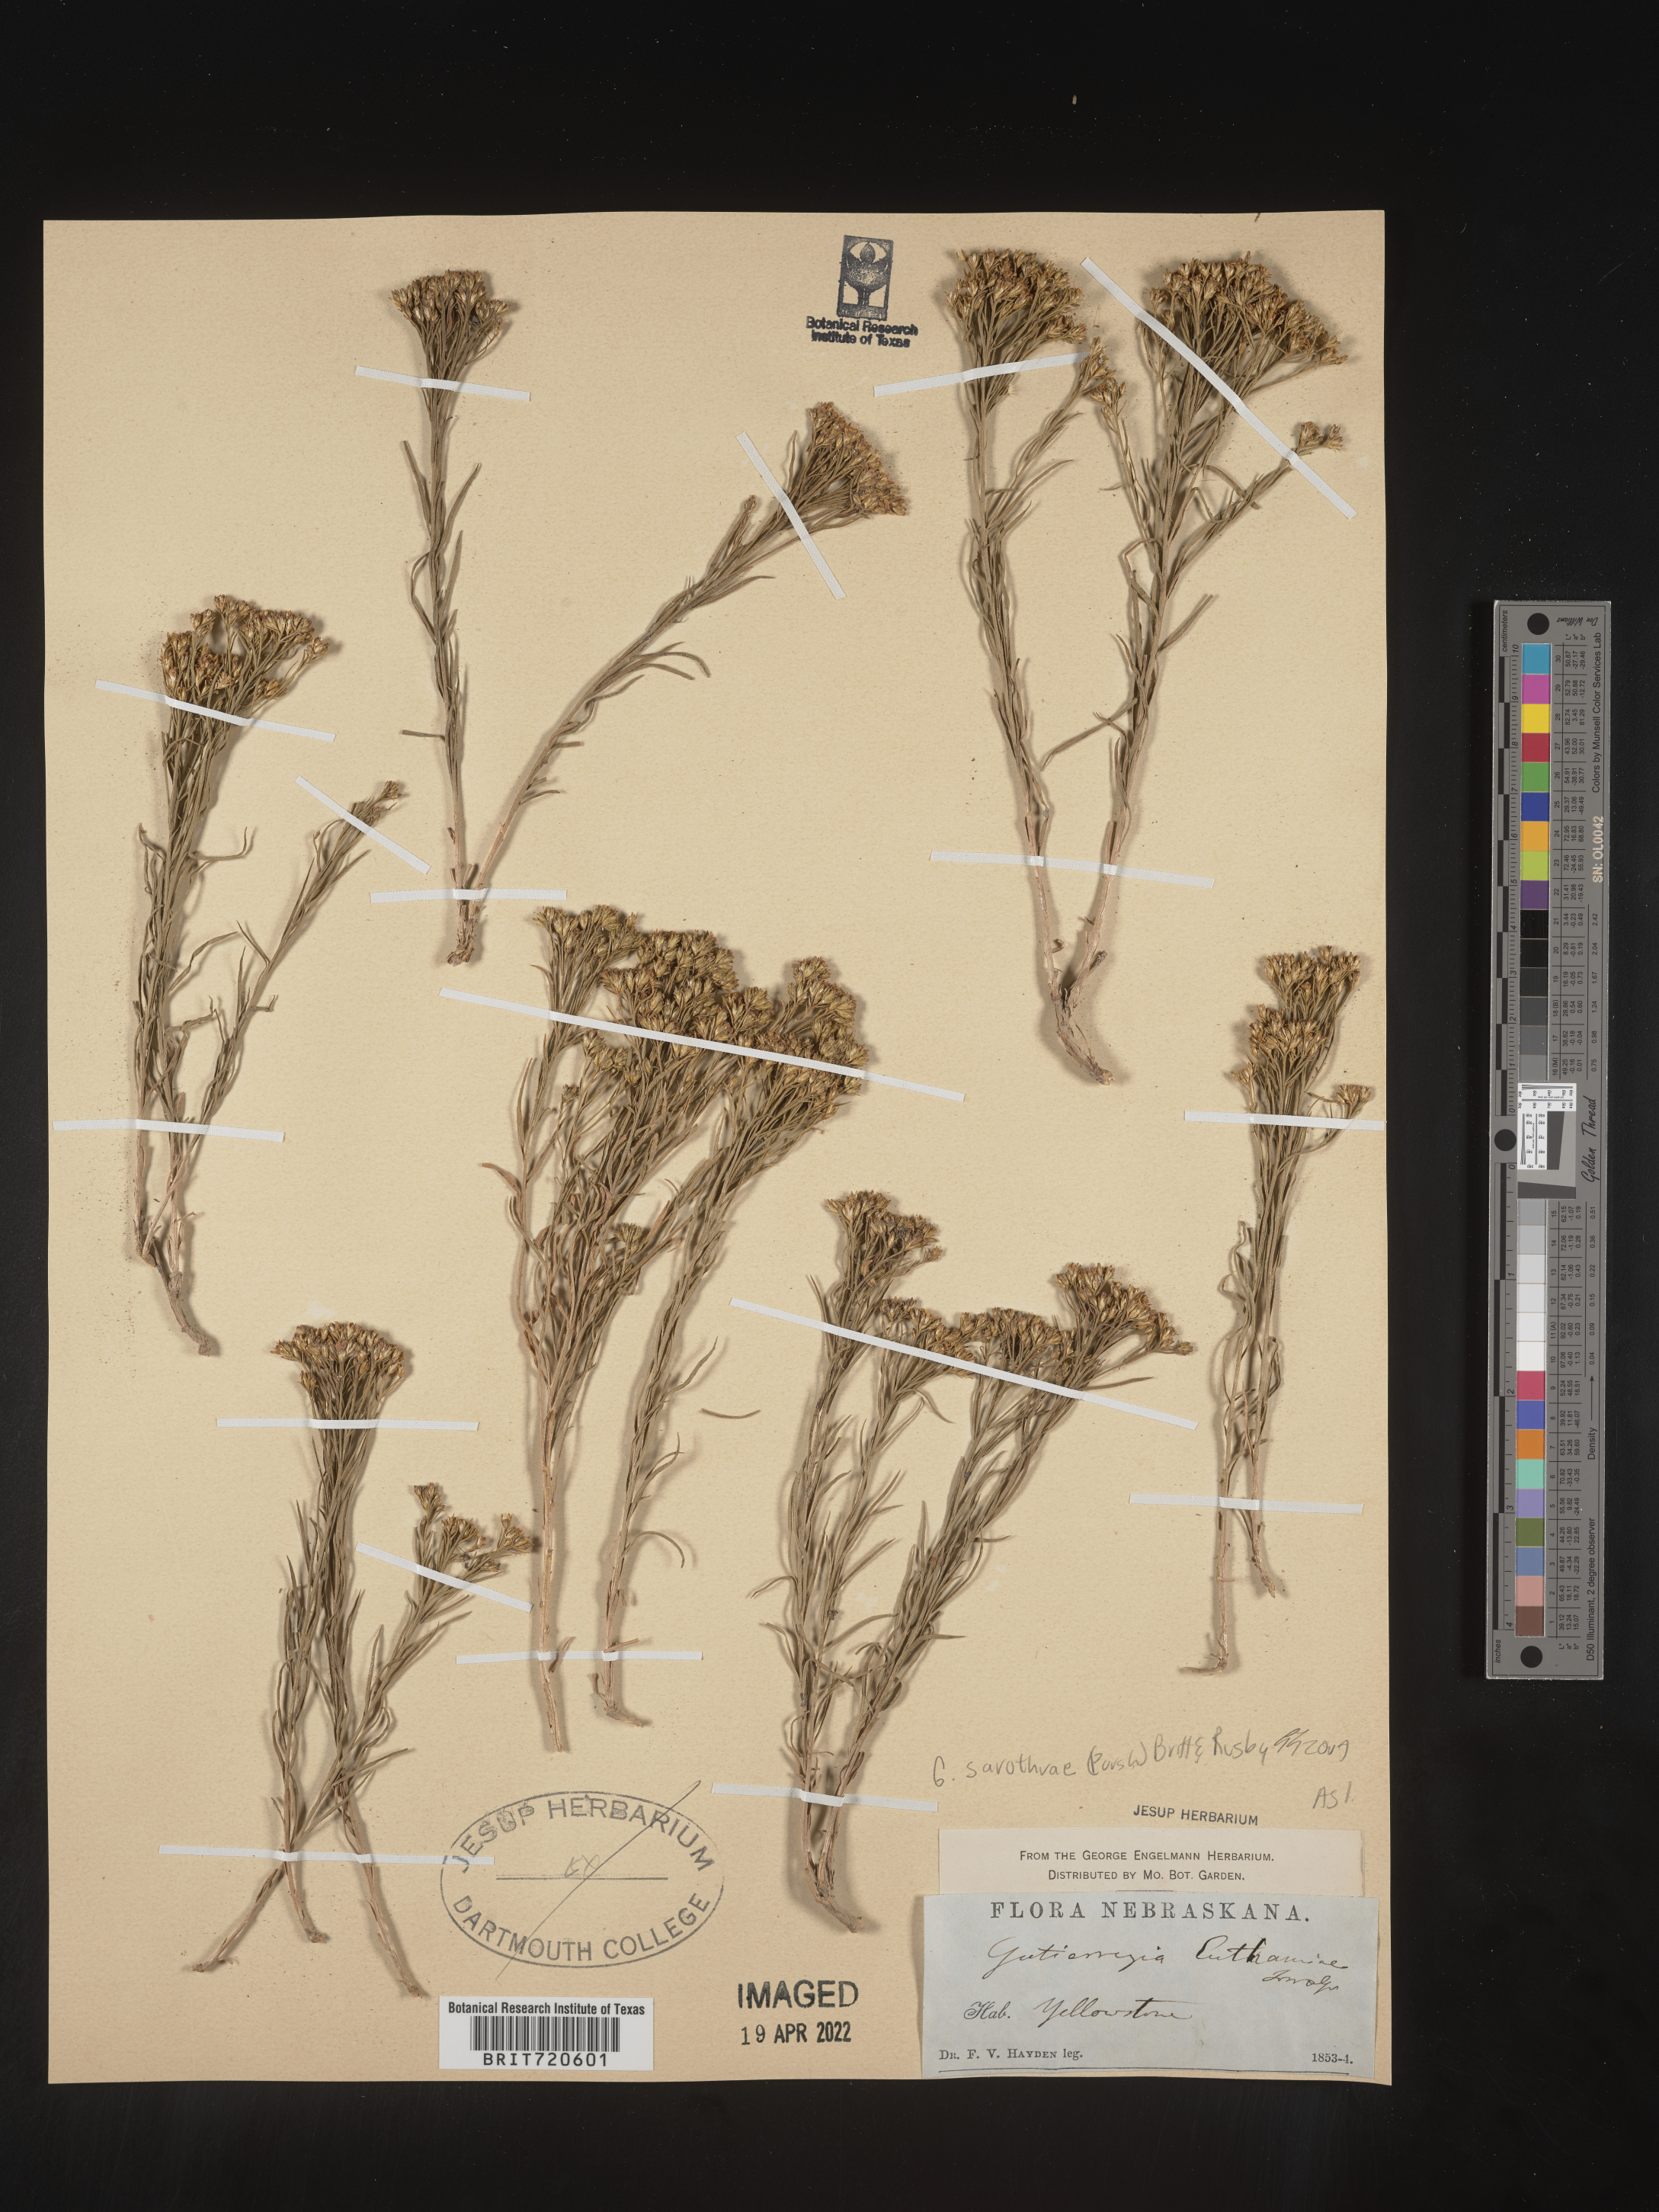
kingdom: Plantae
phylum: Tracheophyta
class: Magnoliopsida
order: Asterales
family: Asteraceae
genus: Gutierrezia
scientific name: Gutierrezia sarothrae
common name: Broom snakeweed
